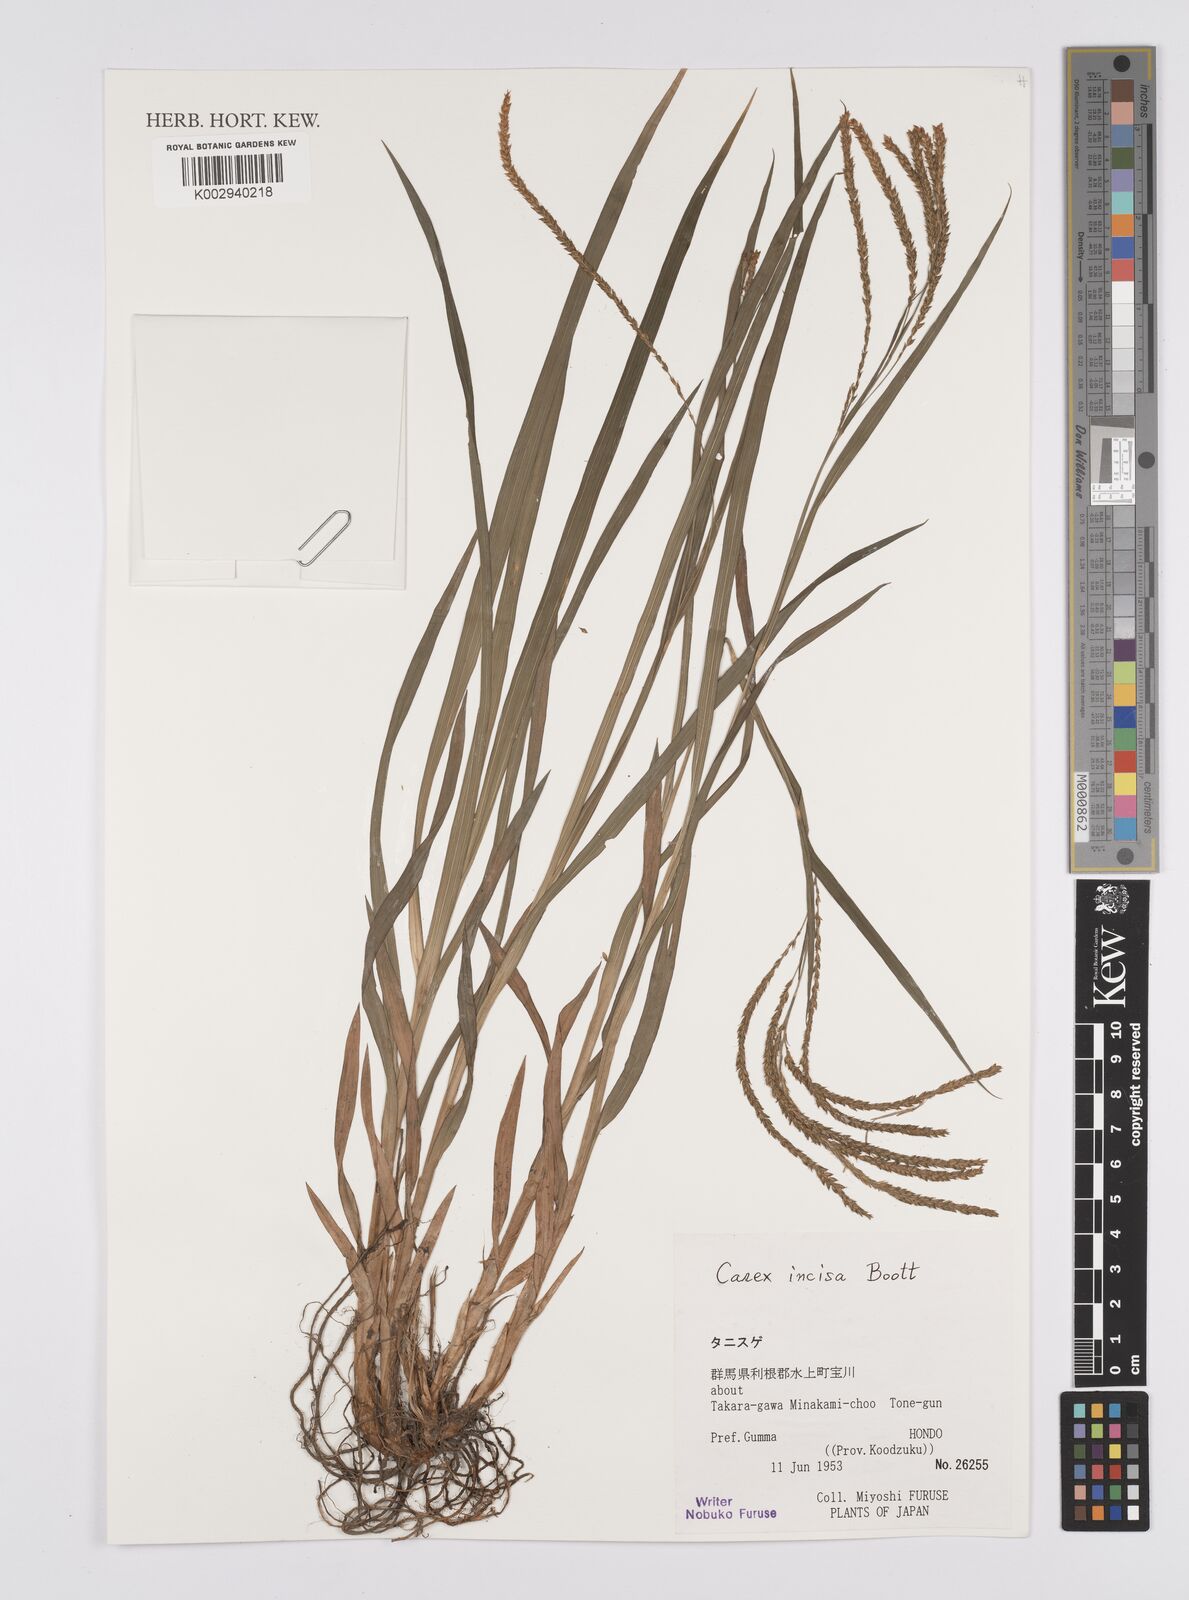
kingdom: Plantae
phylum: Tracheophyta
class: Liliopsida
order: Poales
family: Cyperaceae
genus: Carex
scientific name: Carex incisa
